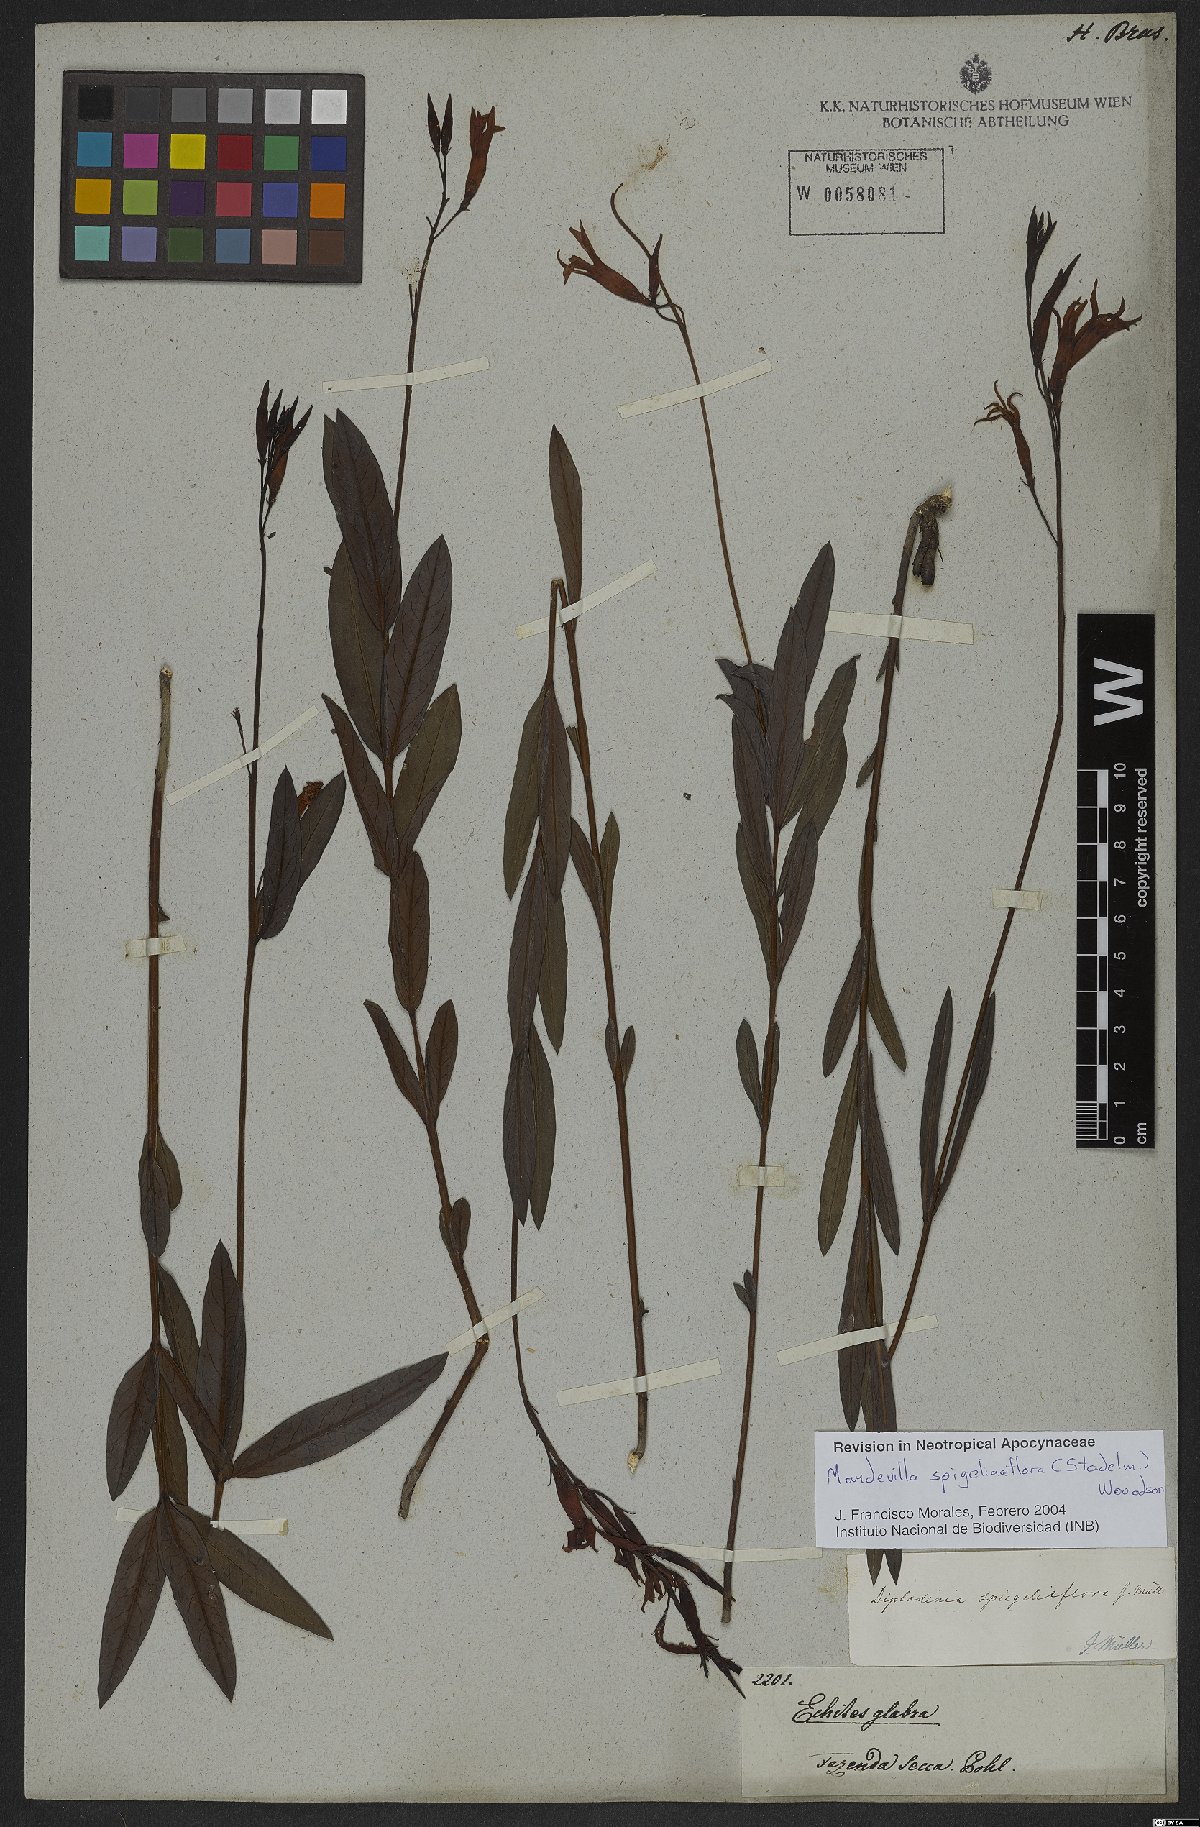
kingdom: Plantae
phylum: Tracheophyta
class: Magnoliopsida
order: Gentianales
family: Apocynaceae
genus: Mandevilla
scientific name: Mandevilla spigeliiflora
